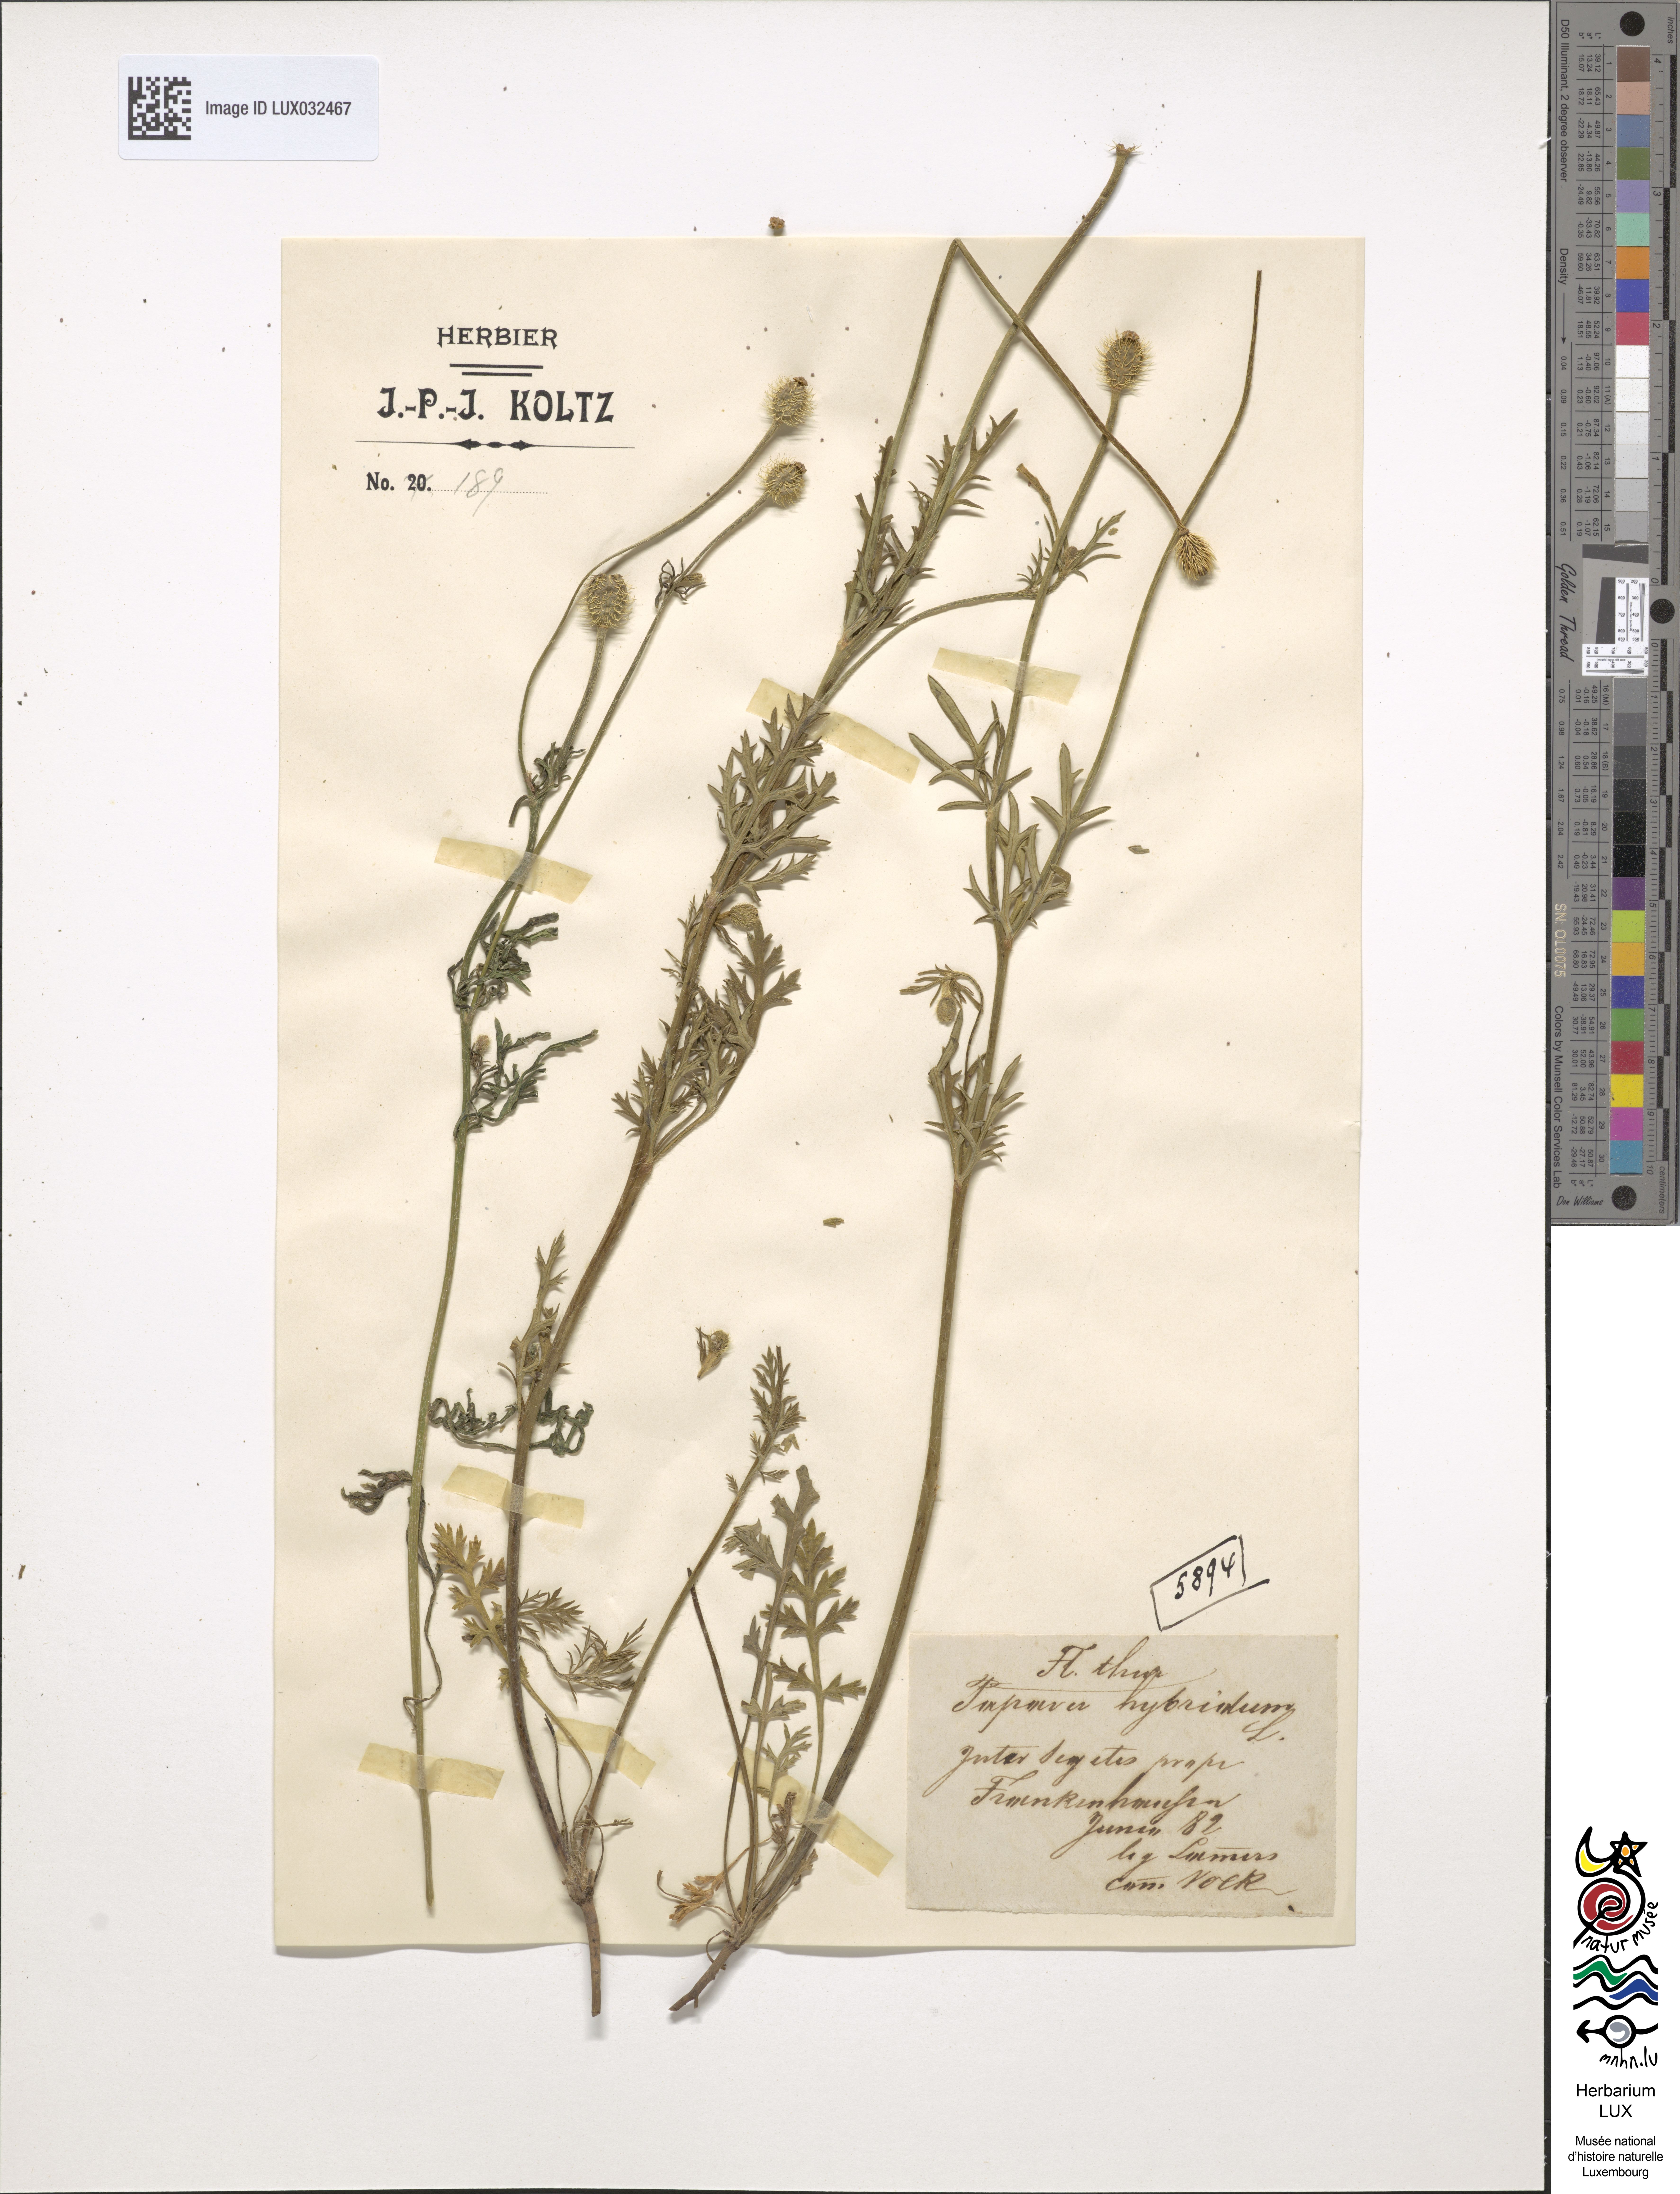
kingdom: Plantae
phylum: Tracheophyta
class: Magnoliopsida
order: Ranunculales
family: Papaveraceae
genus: Roemeria
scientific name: Roemeria hispida
